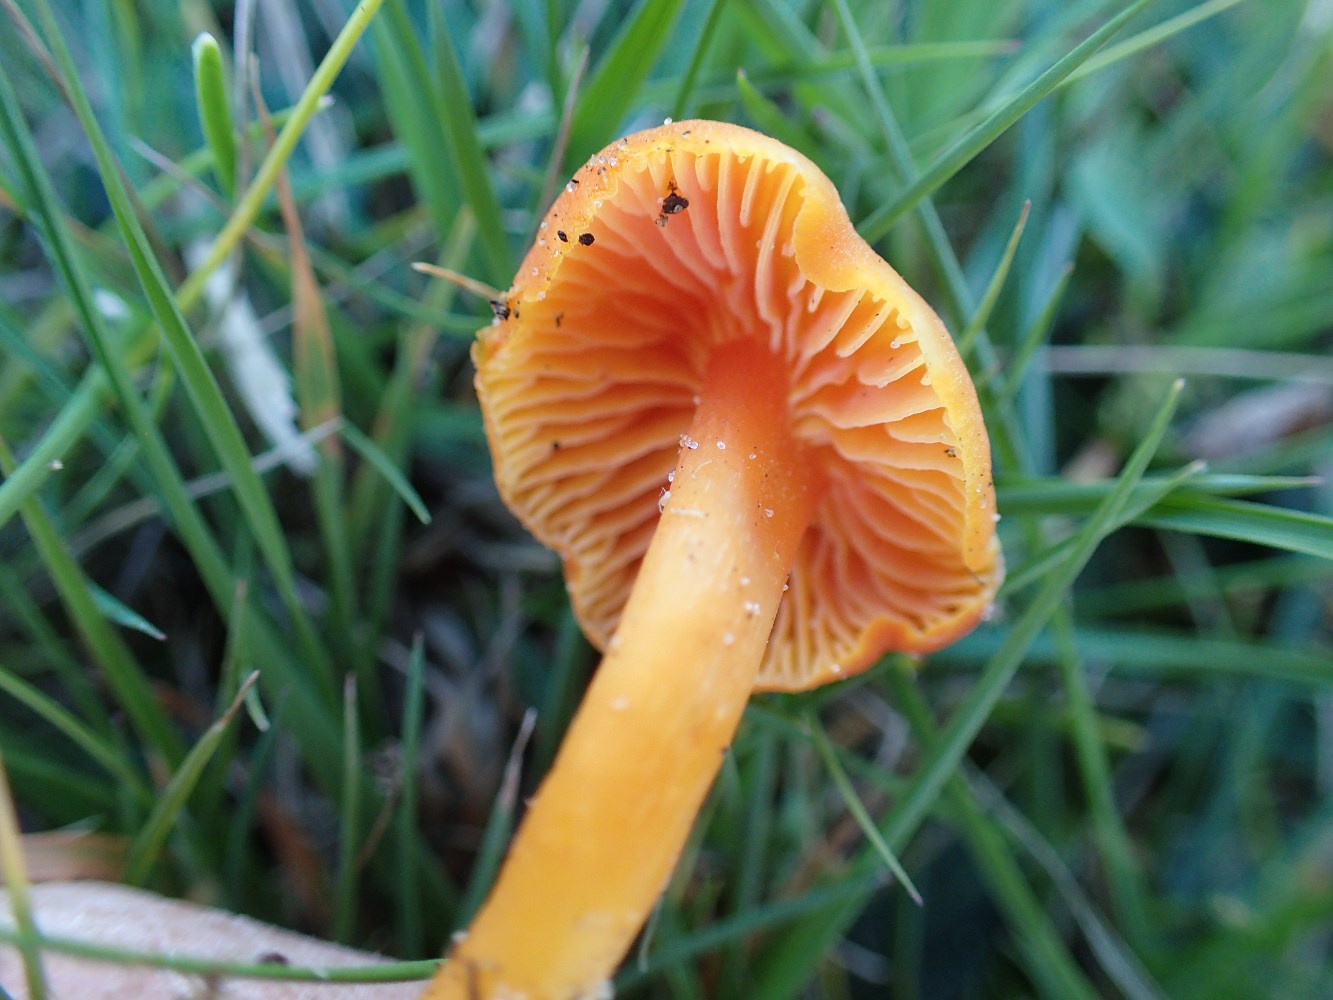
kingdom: Fungi
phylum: Basidiomycota
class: Agaricomycetes
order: Agaricales
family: Hygrophoraceae
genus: Hygrocybe
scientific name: Hygrocybe reidii
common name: honning-vokshat
